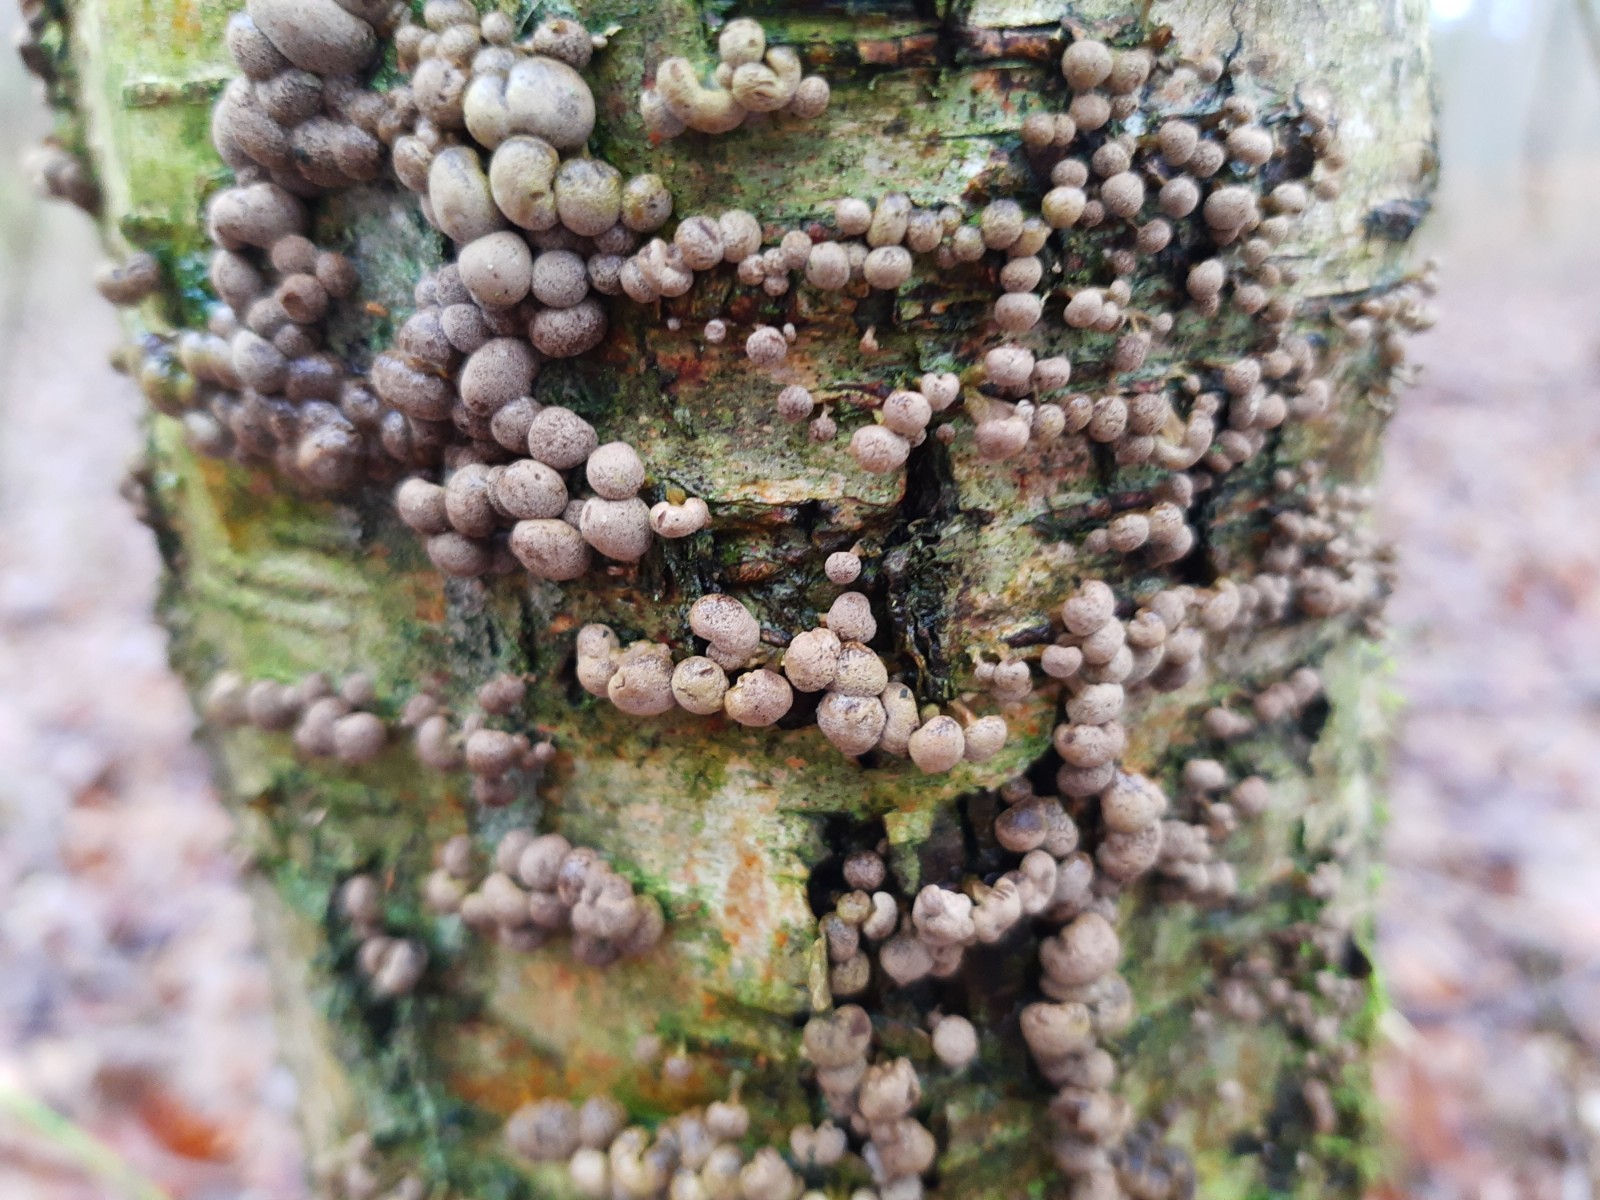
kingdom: Fungi
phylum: Basidiomycota
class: Atractiellomycetes
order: Atractiellales
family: Phleogenaceae
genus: Phleogena
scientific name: Phleogena faginea
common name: pudderkølle
